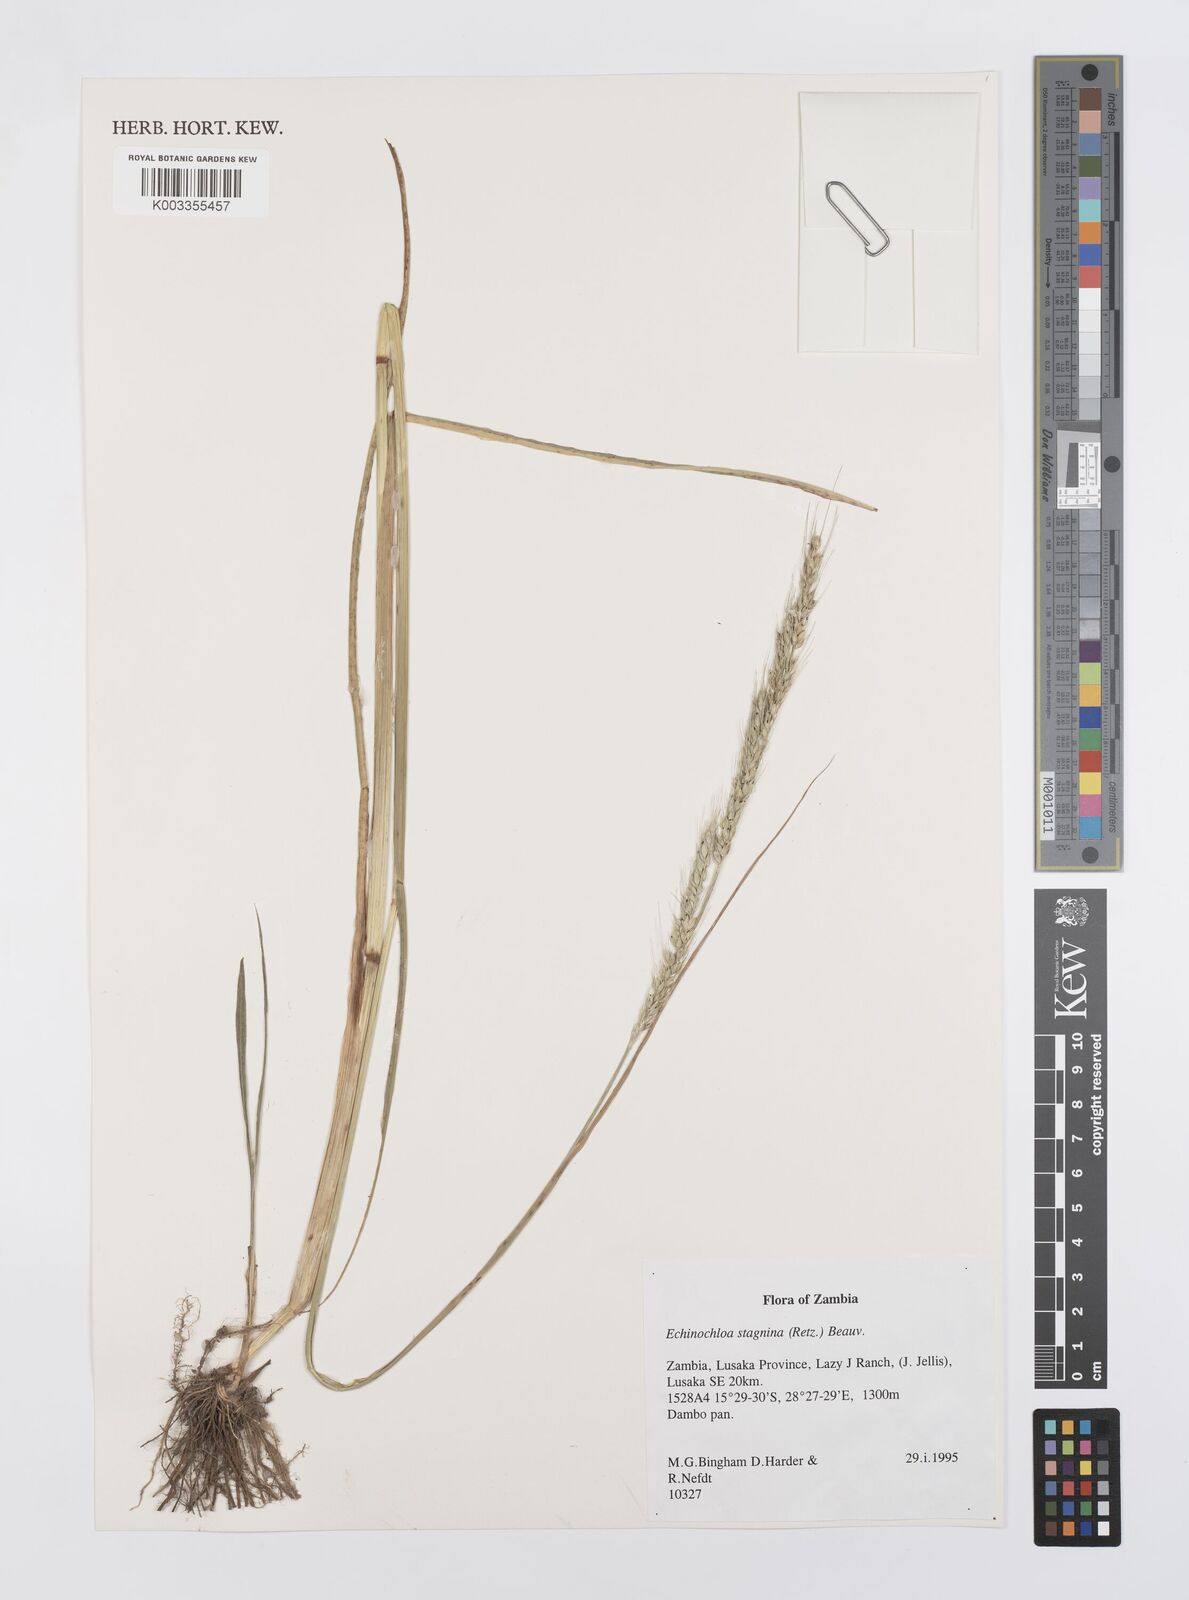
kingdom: Plantae
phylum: Tracheophyta
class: Liliopsida
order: Poales
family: Poaceae
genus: Echinochloa
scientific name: Echinochloa stagnina
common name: Burgu grass
